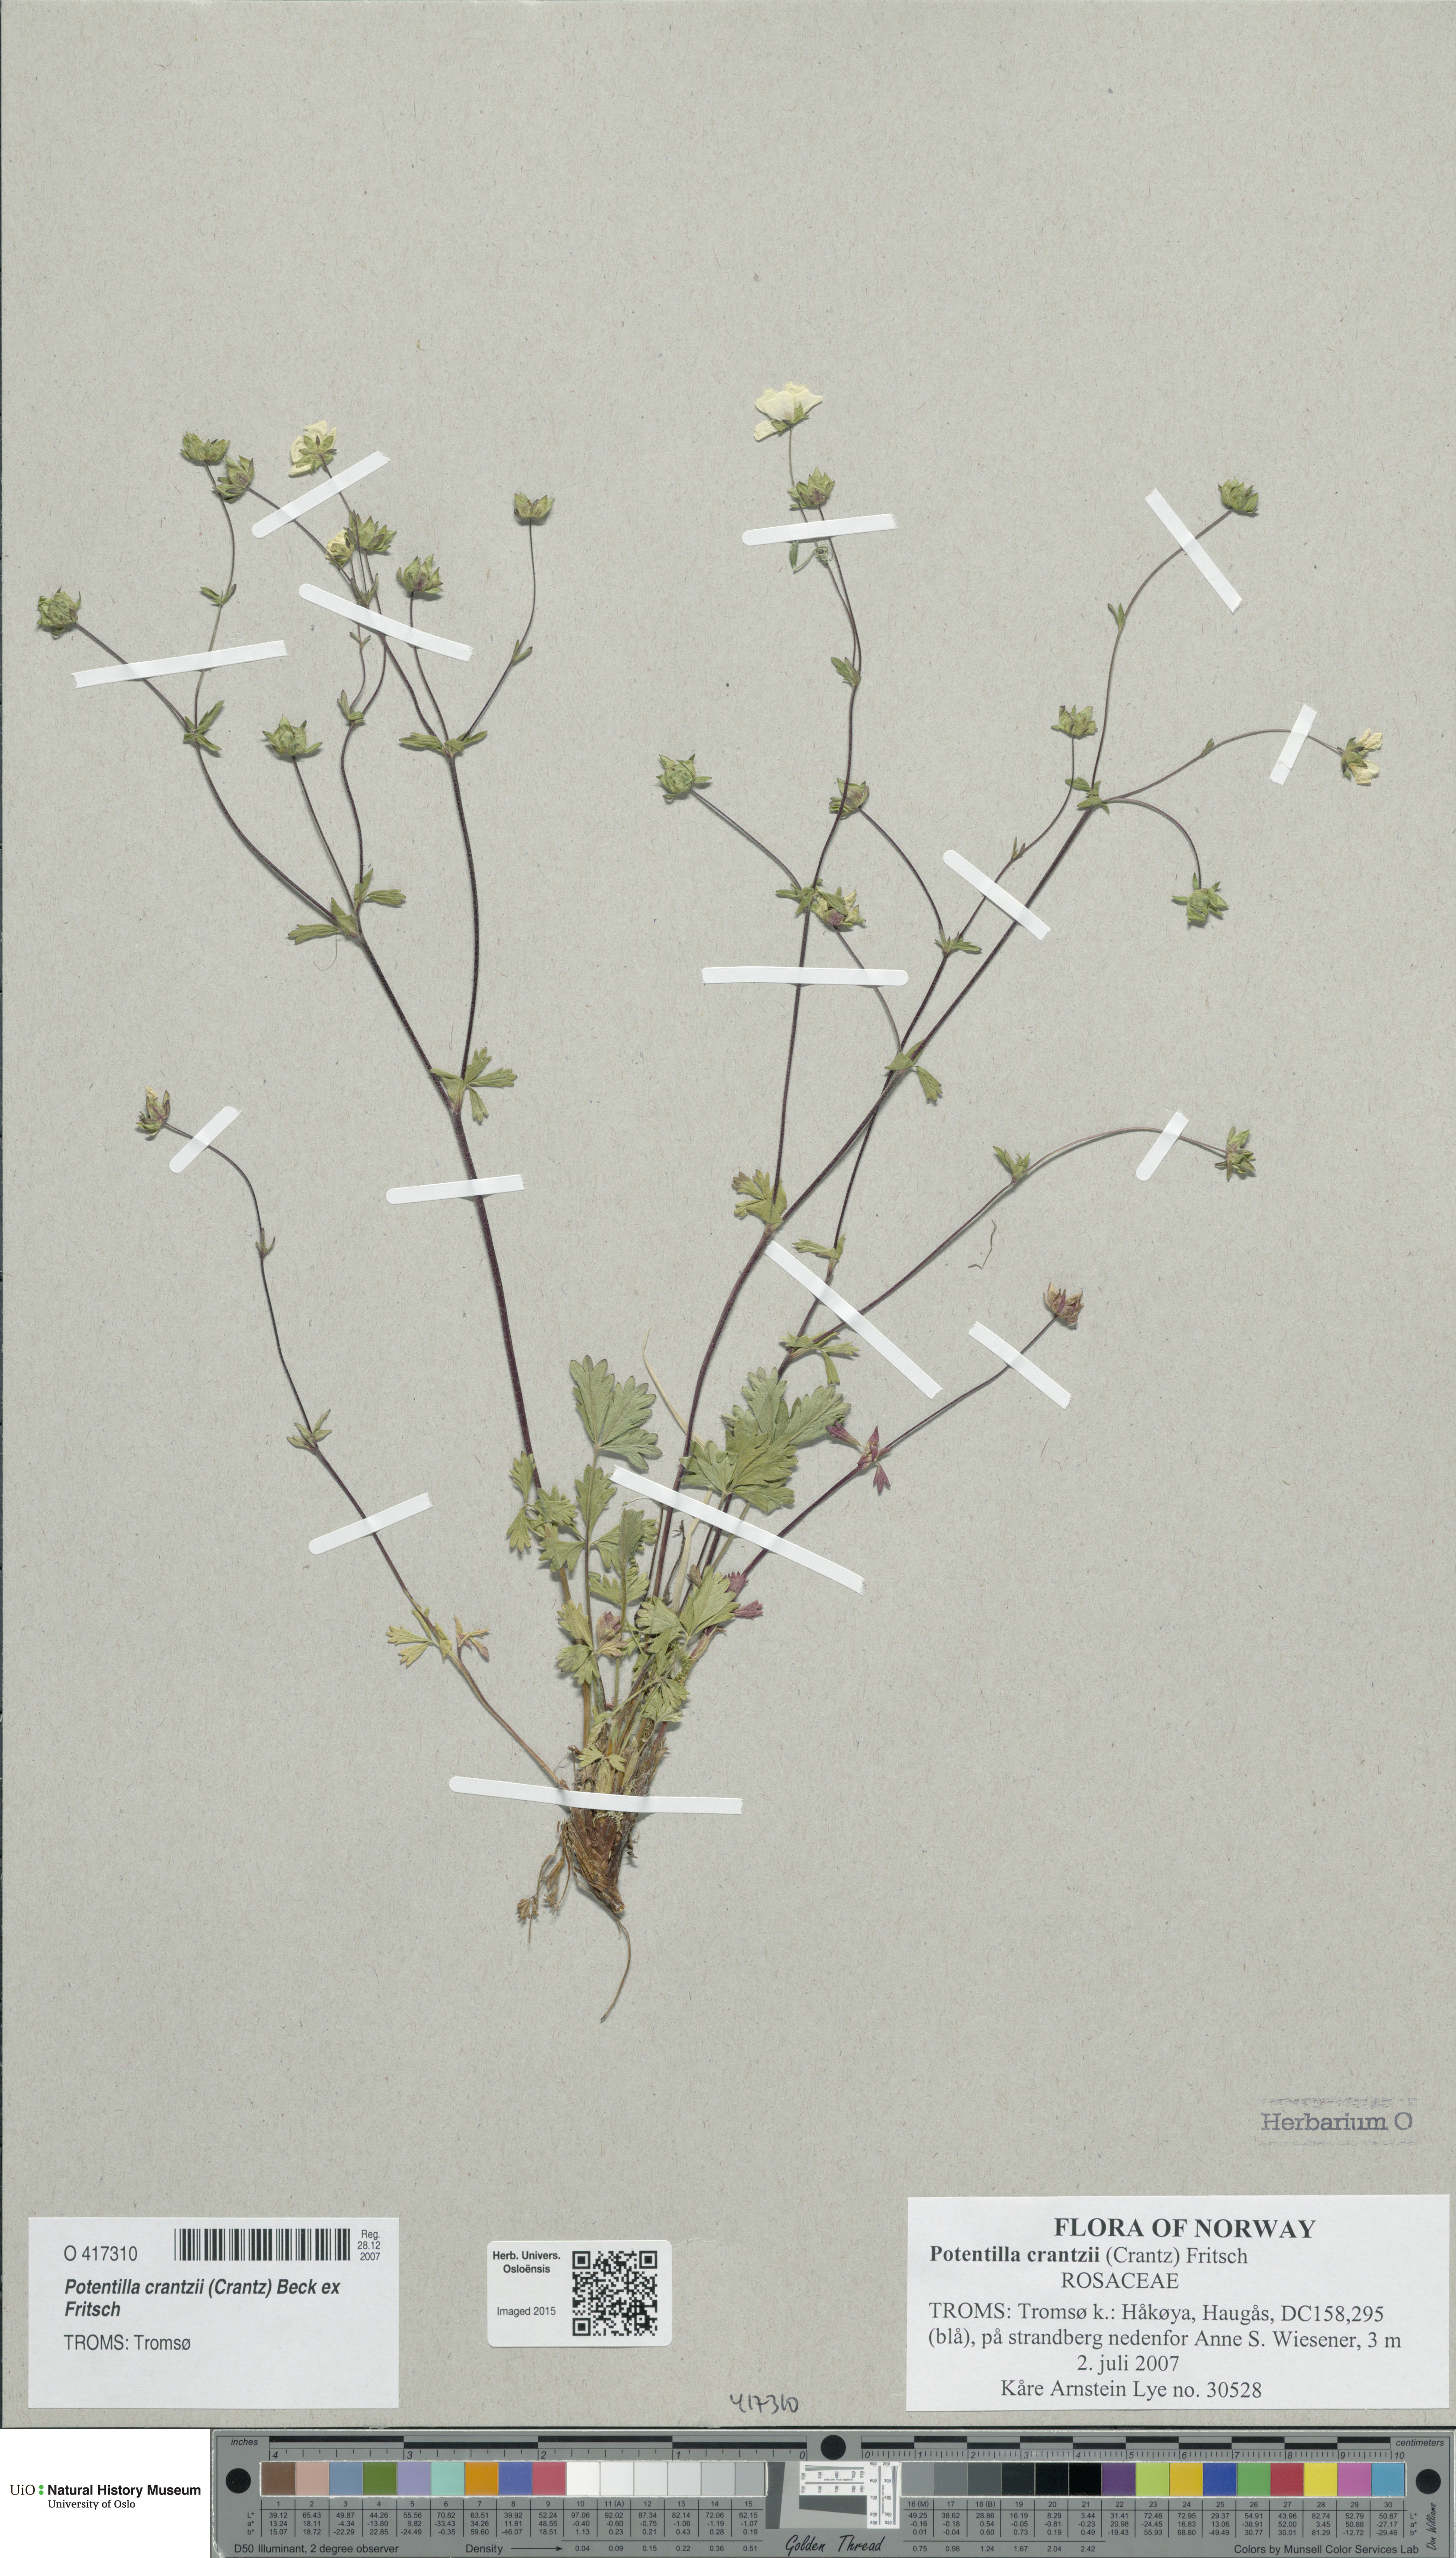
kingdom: Plantae
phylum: Tracheophyta
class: Magnoliopsida
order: Rosales
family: Rosaceae
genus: Potentilla
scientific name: Potentilla crantzii
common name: Alpine cinquefoil
